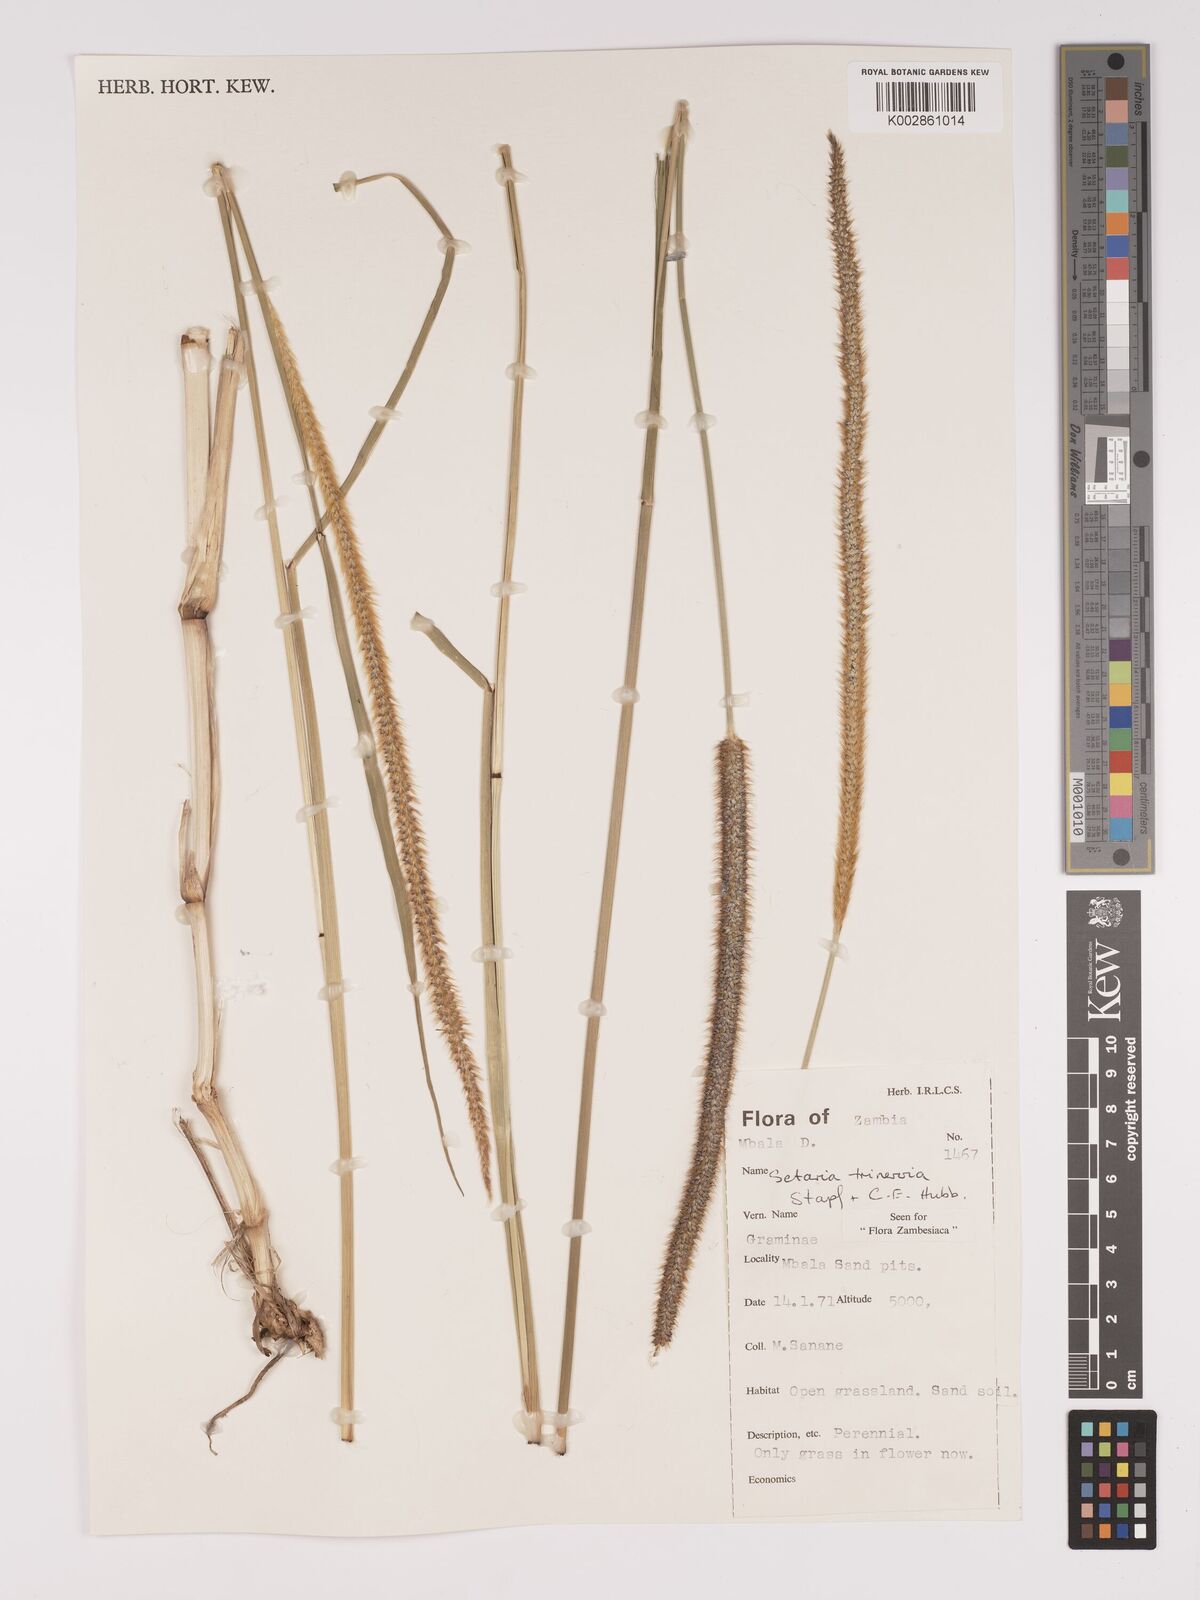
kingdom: Plantae
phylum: Tracheophyta
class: Liliopsida
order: Poales
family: Poaceae
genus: Setaria
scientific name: Setaria sphacelata
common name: African bristlegrass
